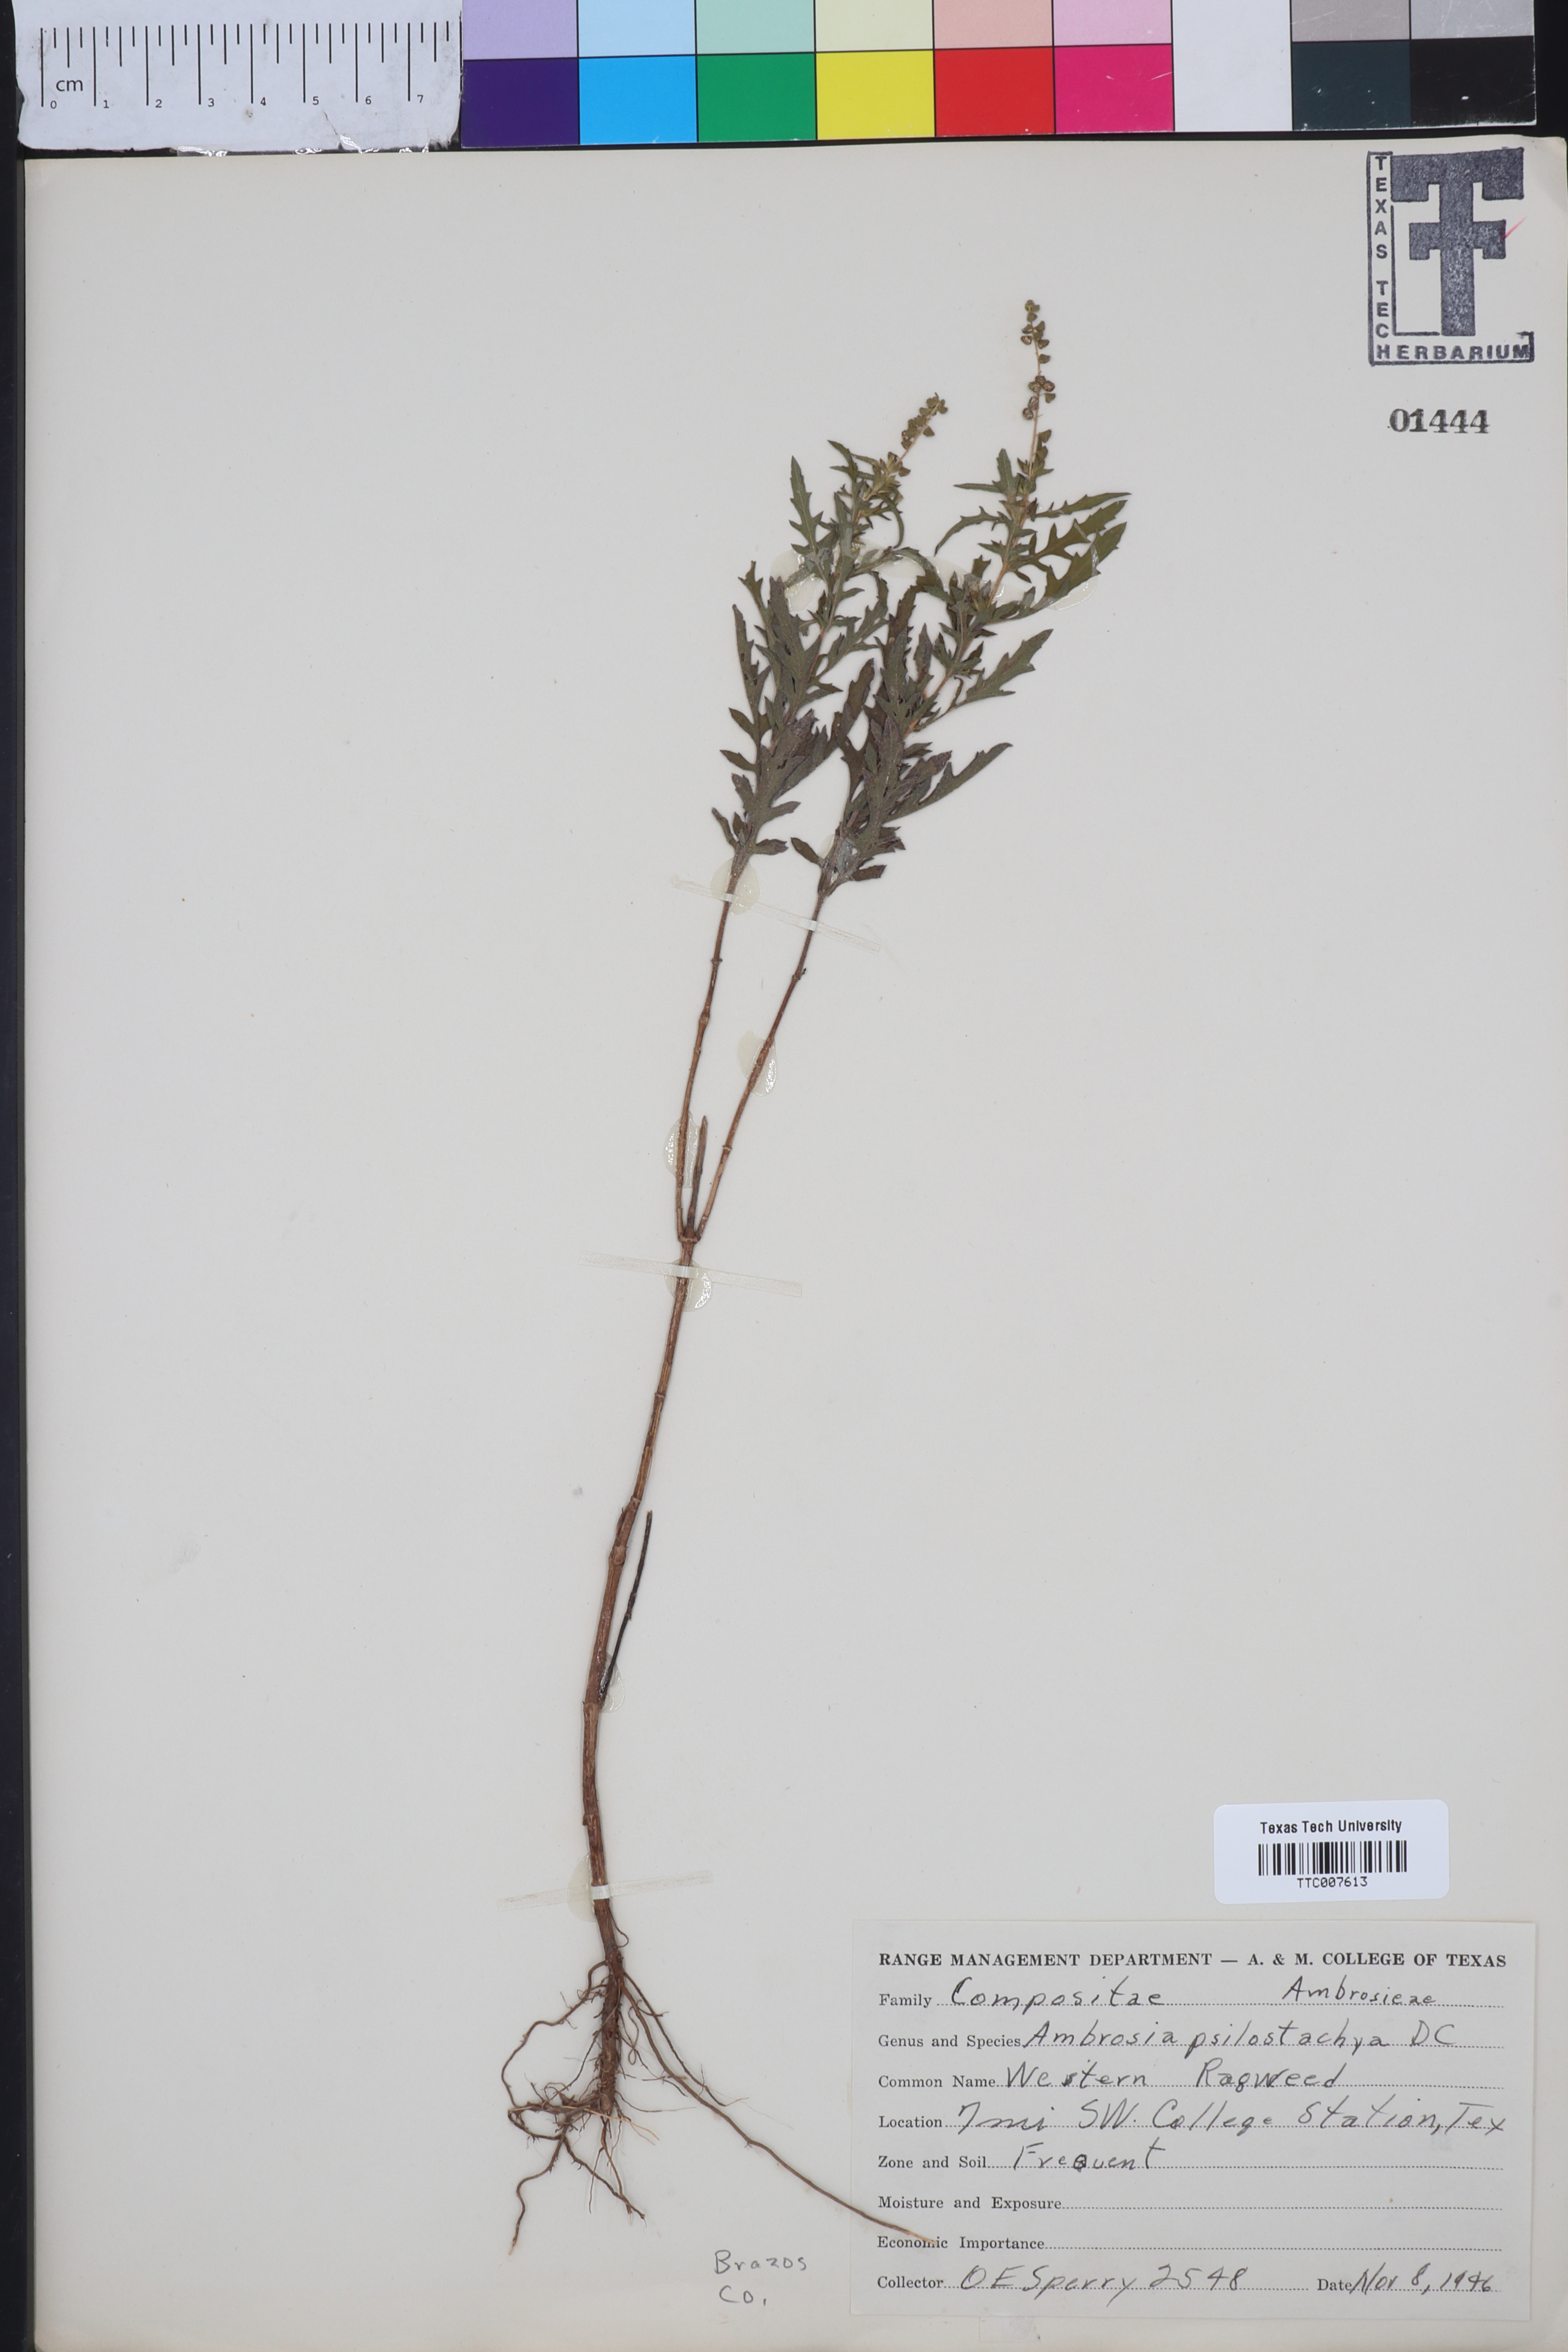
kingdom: Plantae
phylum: Tracheophyta
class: Magnoliopsida
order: Asterales
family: Asteraceae
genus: Ambrosia
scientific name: Ambrosia psilostachya
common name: Perennial ragweed
